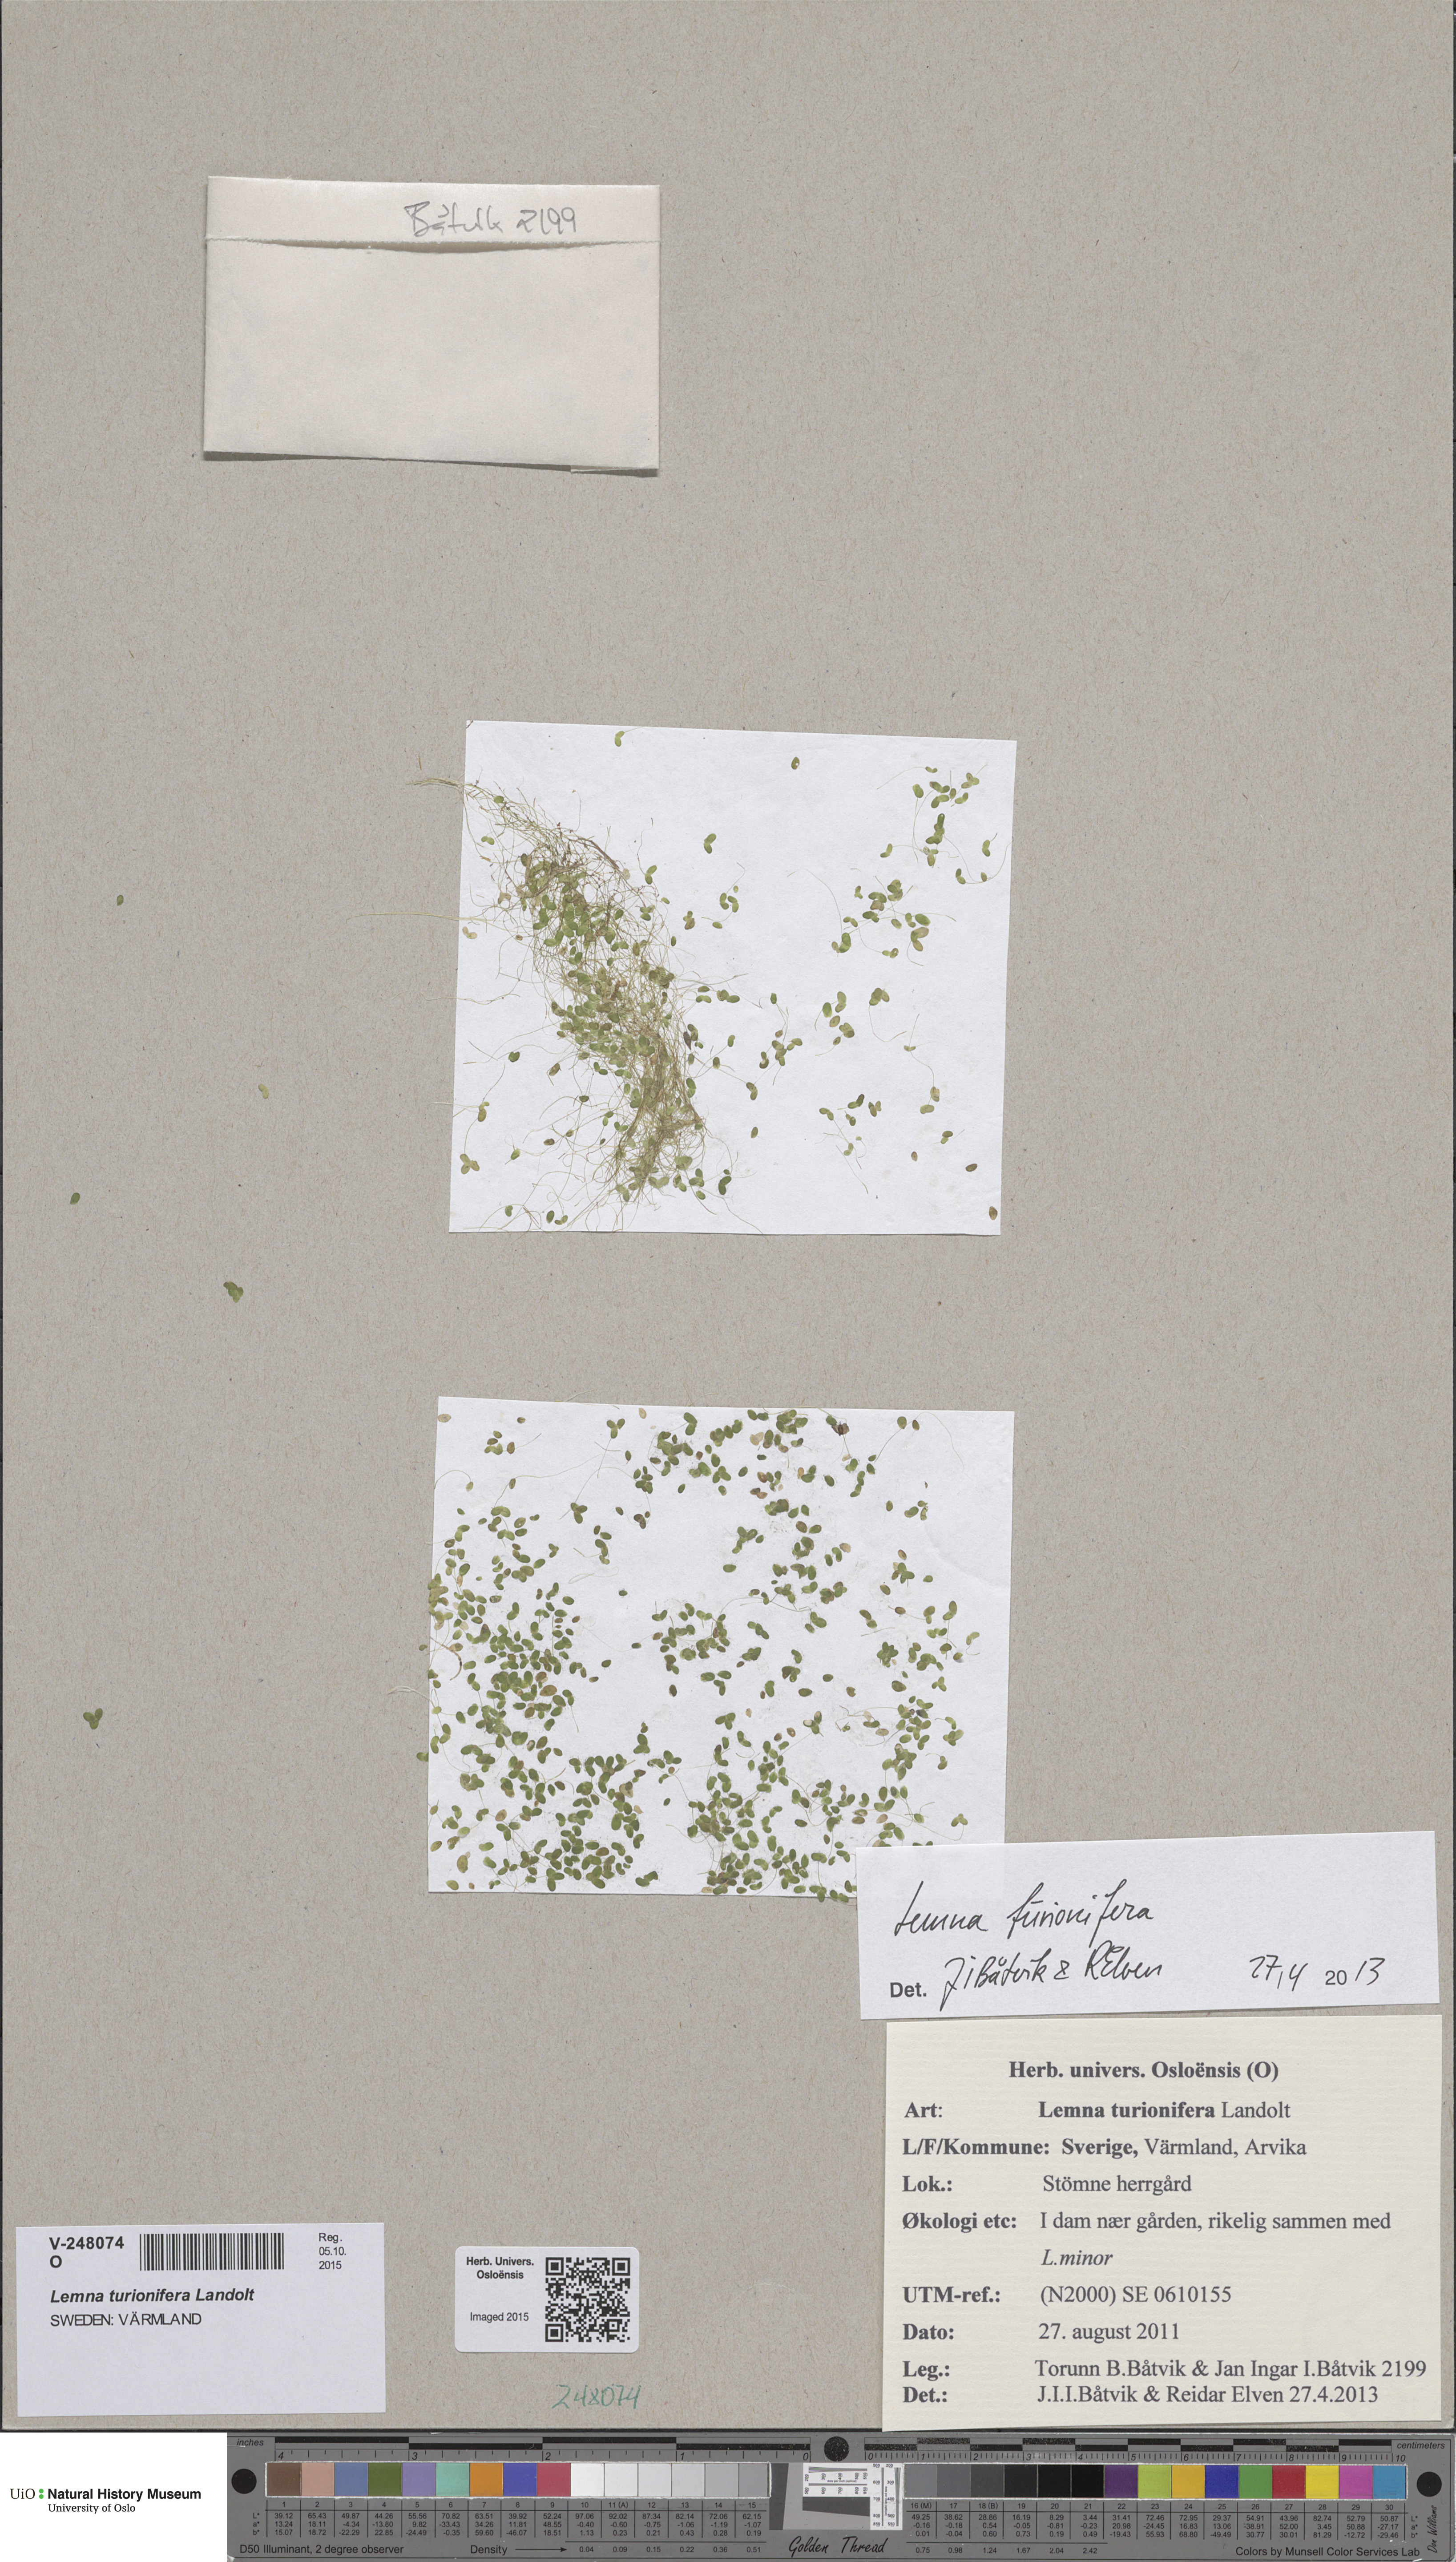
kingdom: Plantae
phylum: Tracheophyta
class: Liliopsida
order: Alismatales
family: Araceae
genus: Lemna
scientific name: Lemna turionifera
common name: Perennial duckweed
